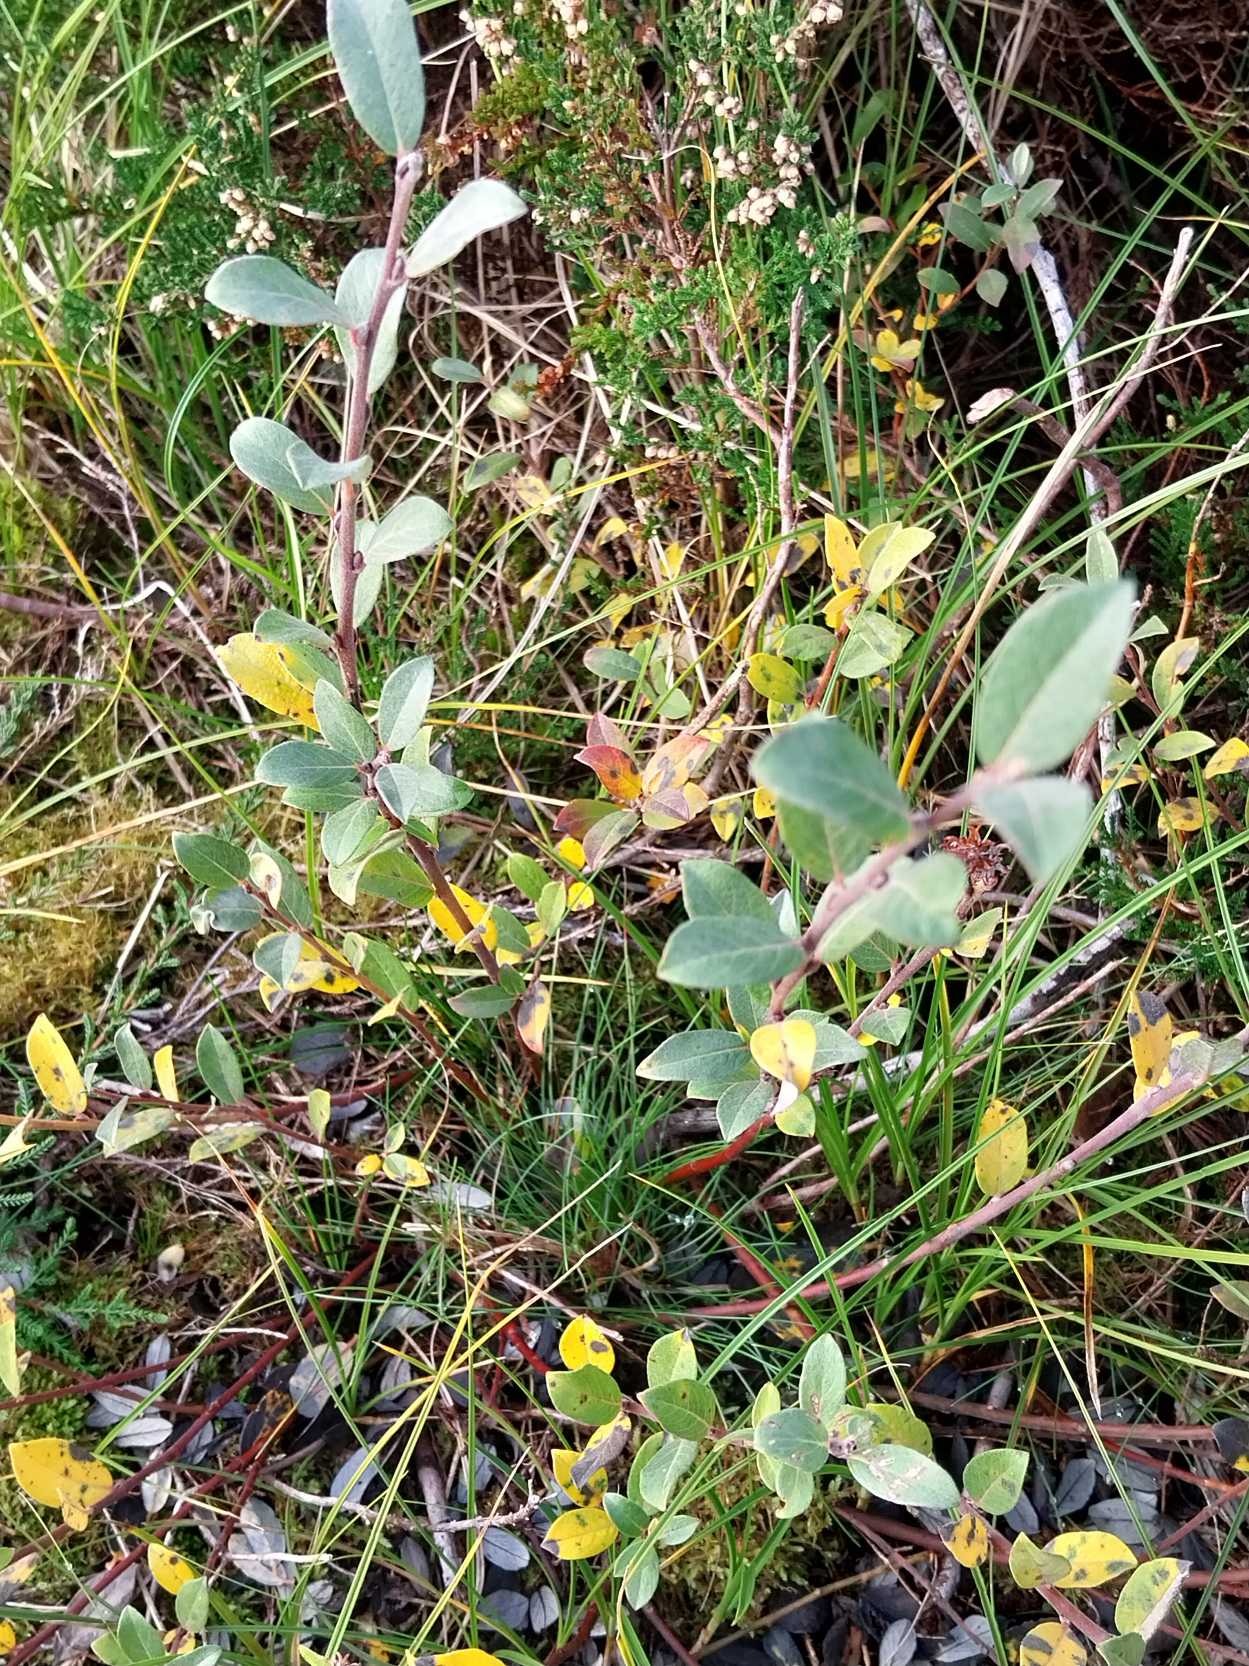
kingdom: Plantae
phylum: Tracheophyta
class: Magnoliopsida
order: Malpighiales
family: Salicaceae
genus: Salix
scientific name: Salix repens
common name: Krybende pil
